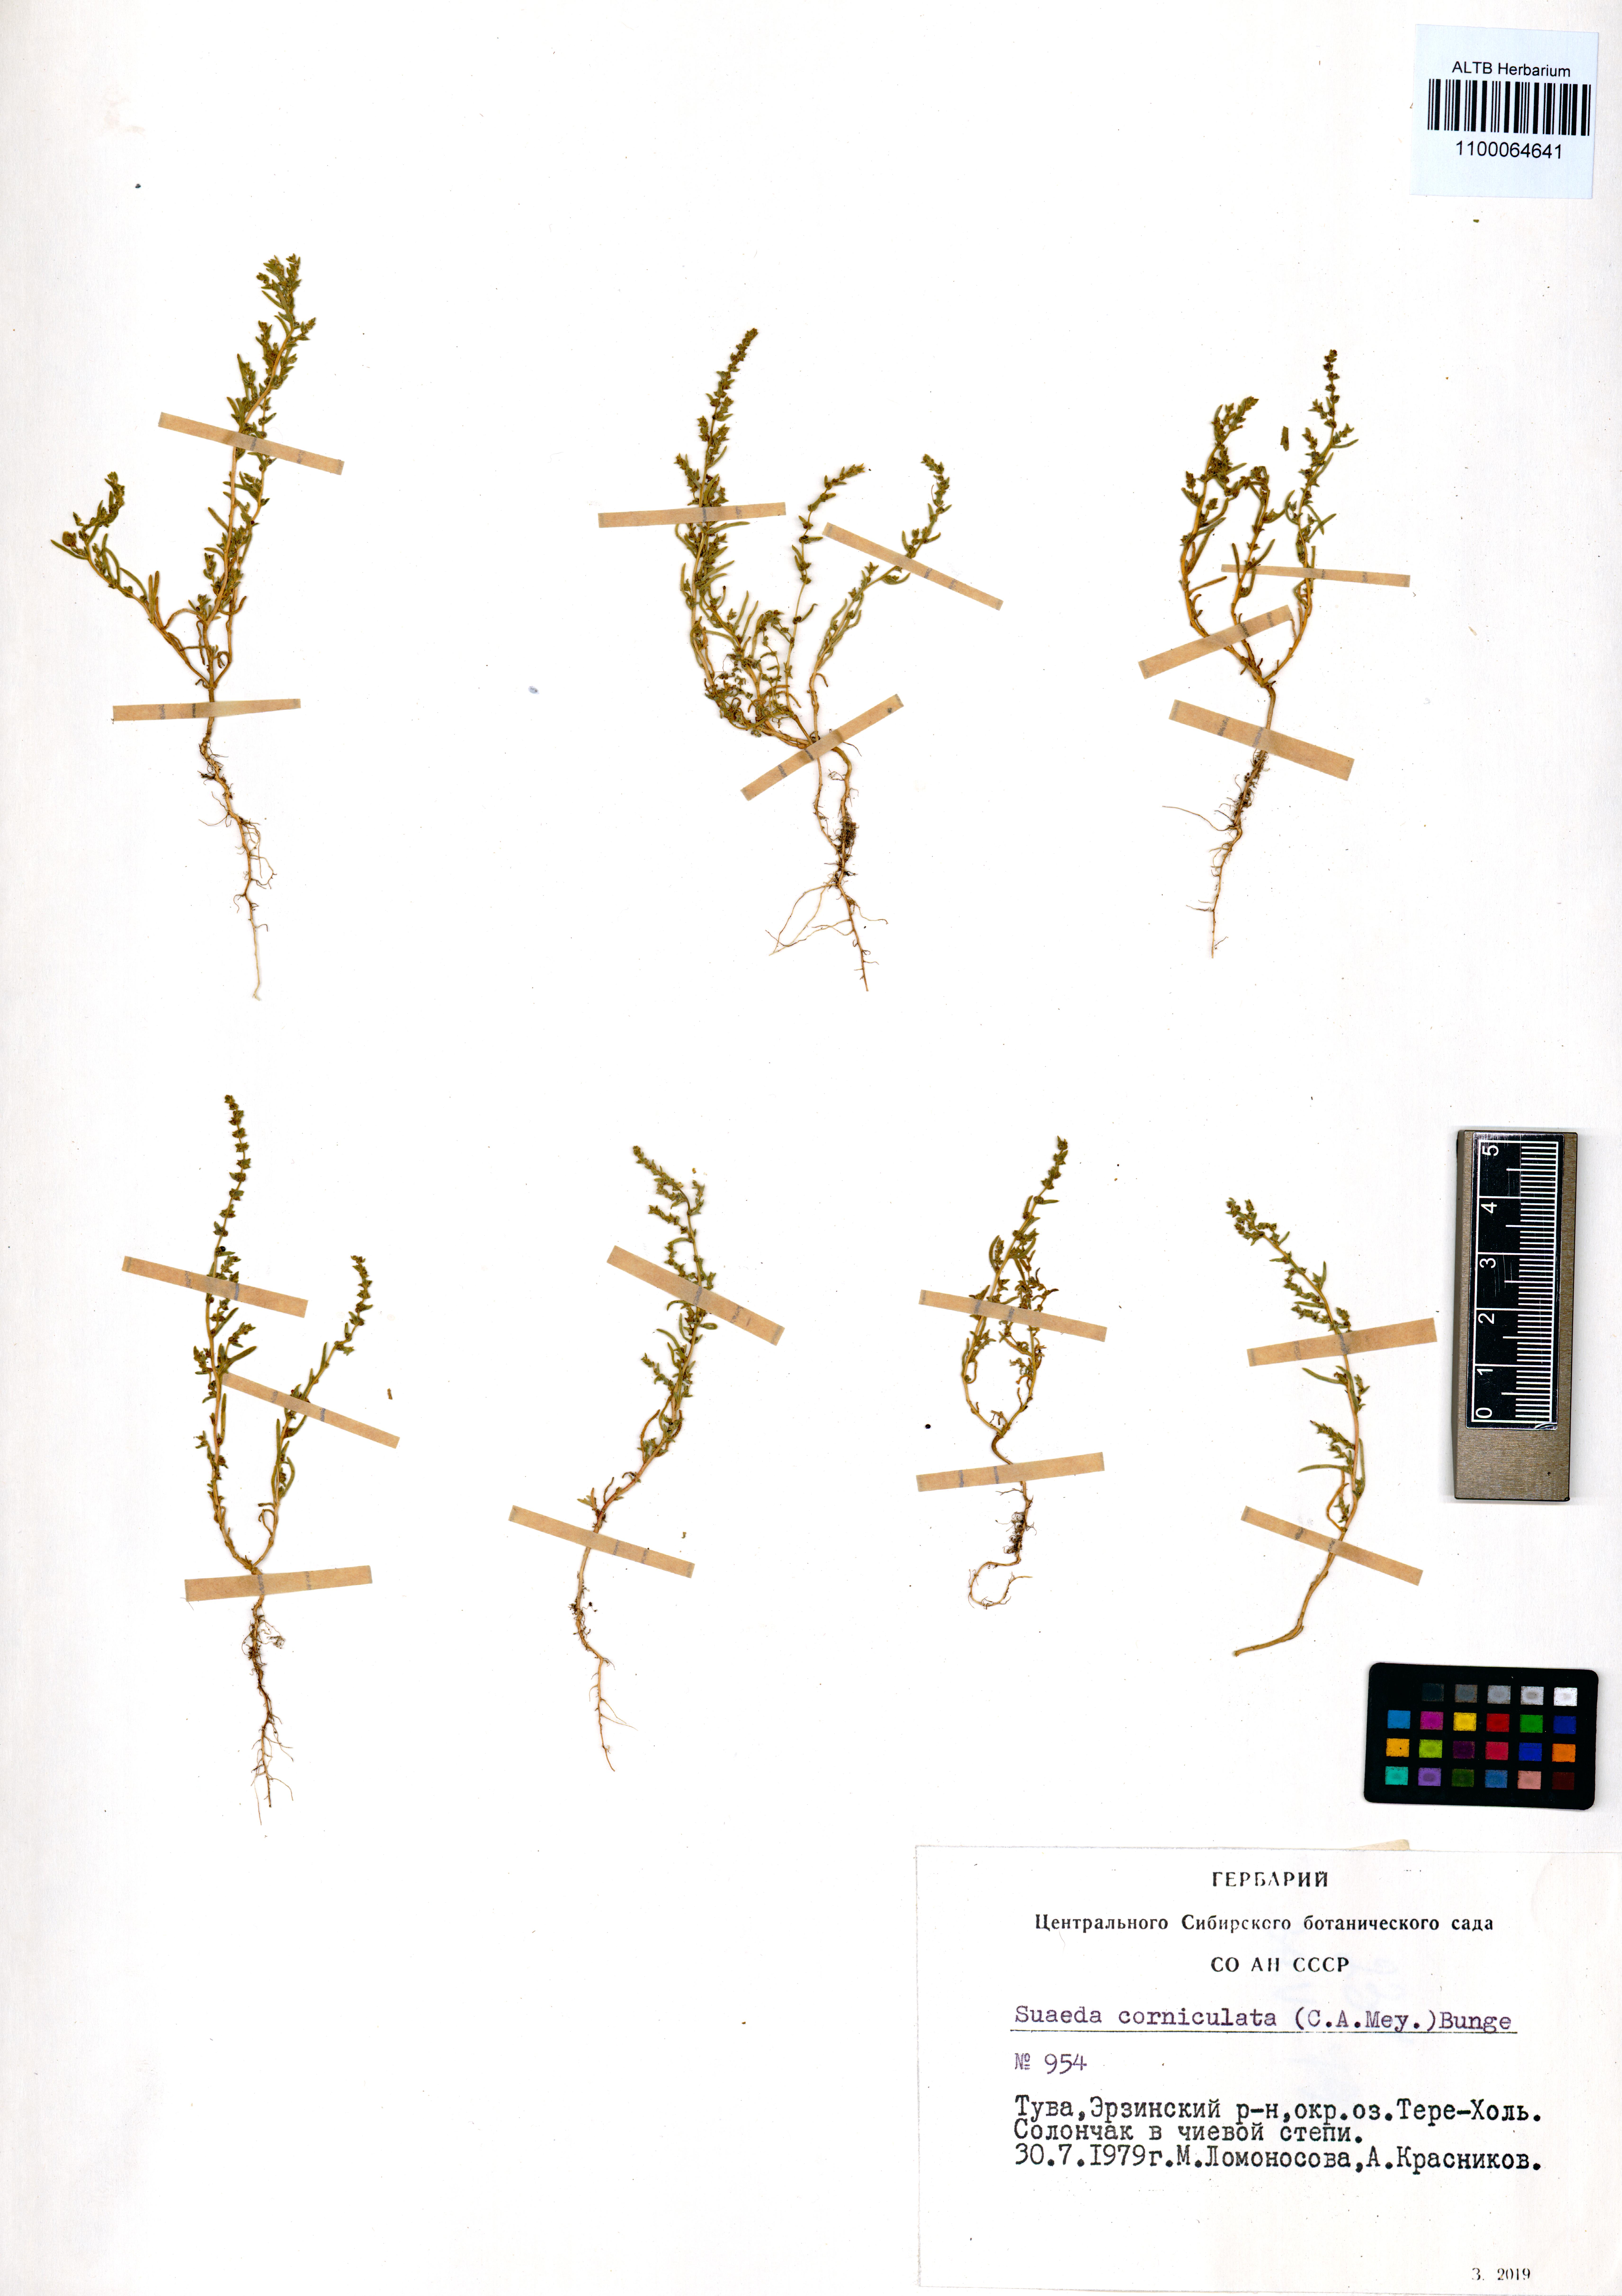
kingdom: Plantae
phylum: Tracheophyta
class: Magnoliopsida
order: Caryophyllales
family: Amaranthaceae
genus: Suaeda
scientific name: Suaeda corniculata
